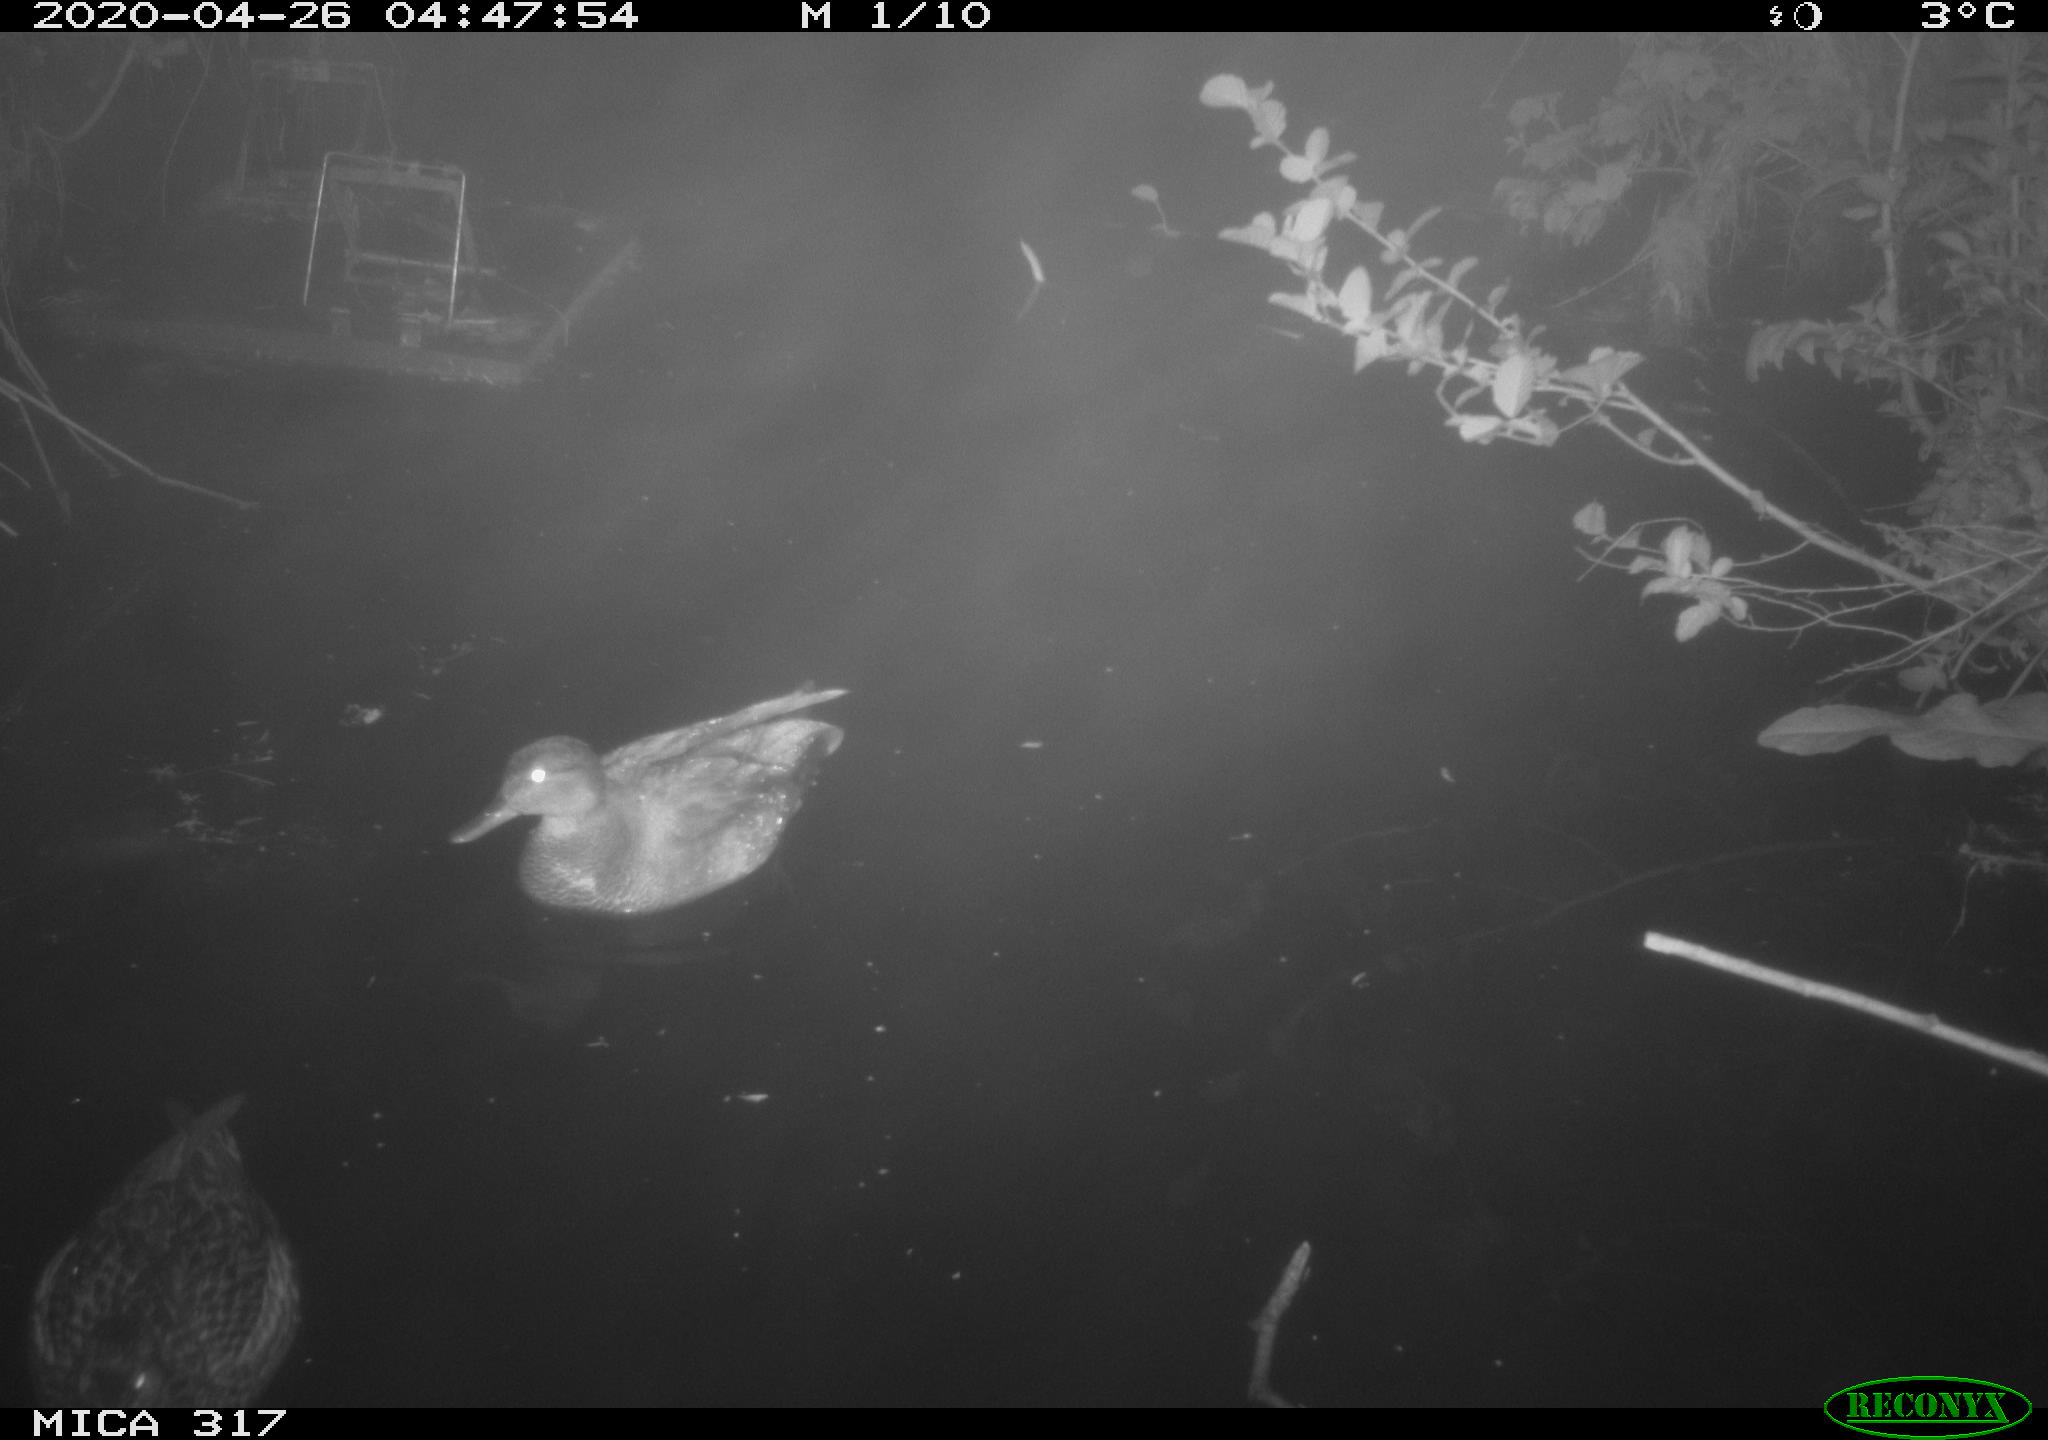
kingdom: Animalia
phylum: Chordata
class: Aves
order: Anseriformes
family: Anatidae
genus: Mareca
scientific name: Mareca strepera
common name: Gadwall
